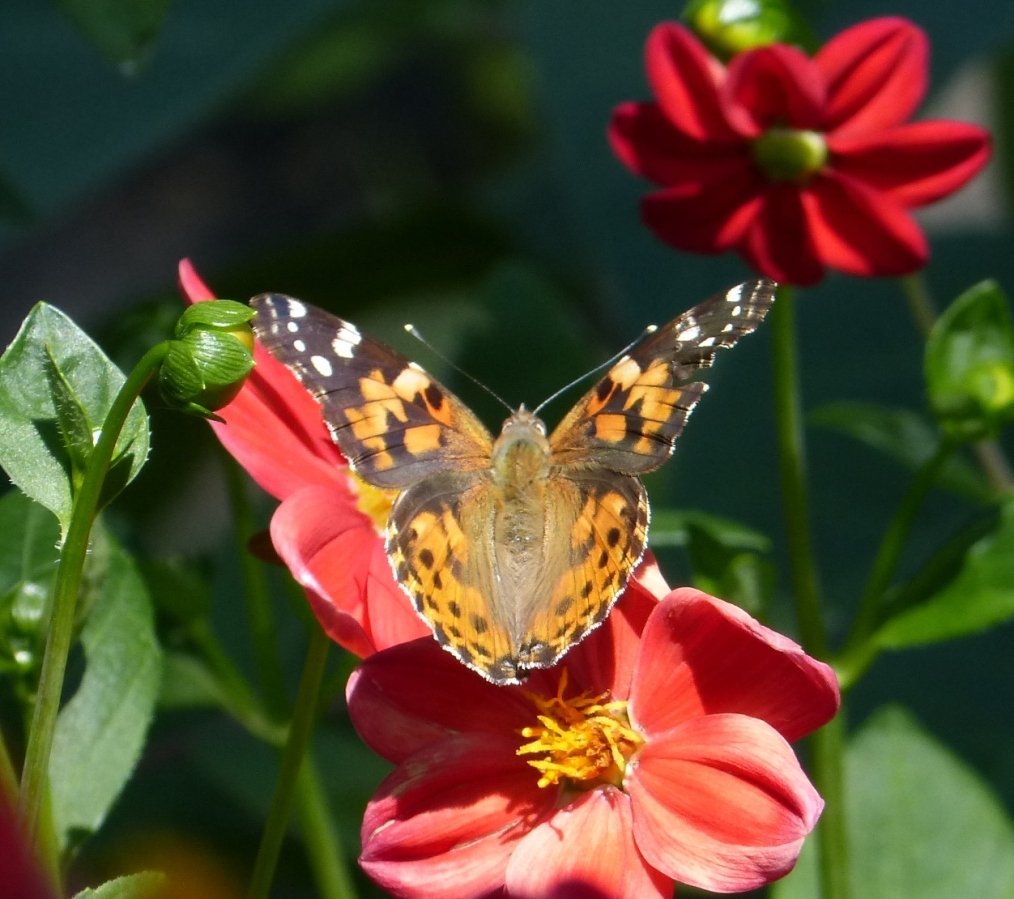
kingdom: Animalia
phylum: Arthropoda
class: Insecta
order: Lepidoptera
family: Nymphalidae
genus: Vanessa
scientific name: Vanessa cardui
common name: Painted Lady
